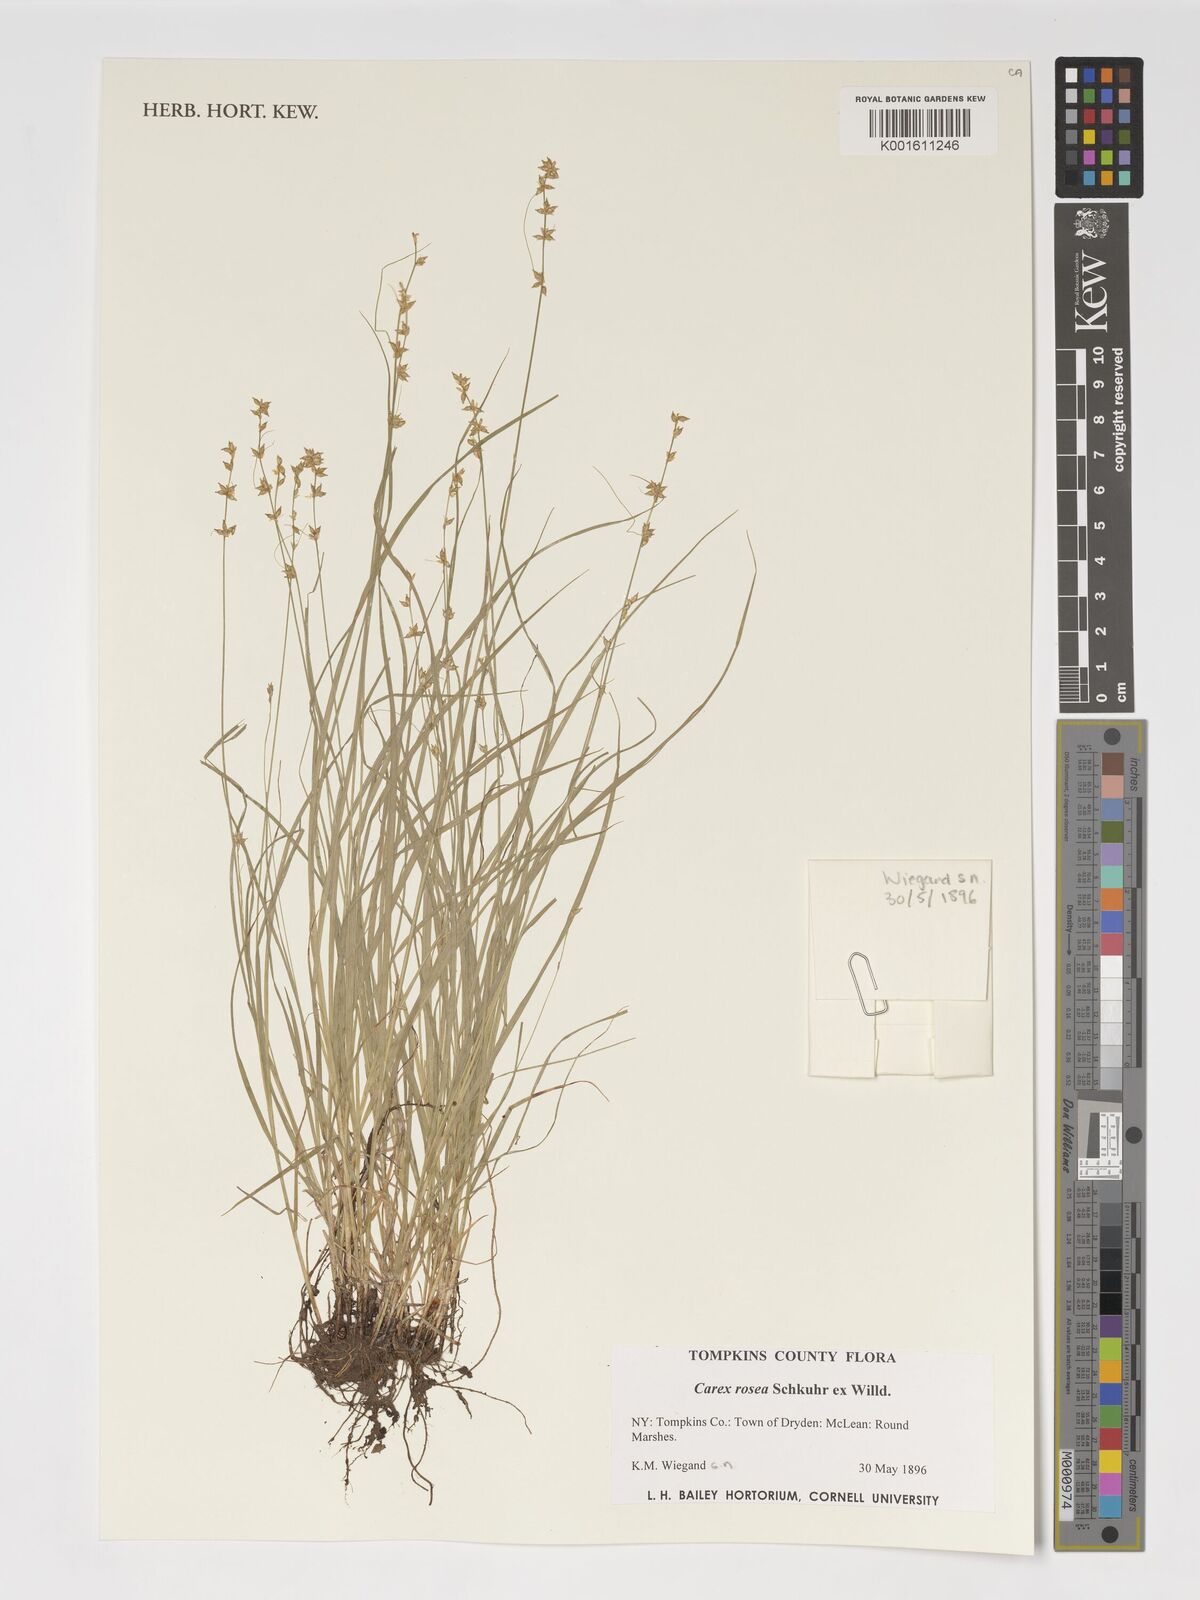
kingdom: Plantae
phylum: Tracheophyta
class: Liliopsida
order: Poales
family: Cyperaceae
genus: Carex
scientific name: Carex rosea
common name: Curly-styled wood sedge
